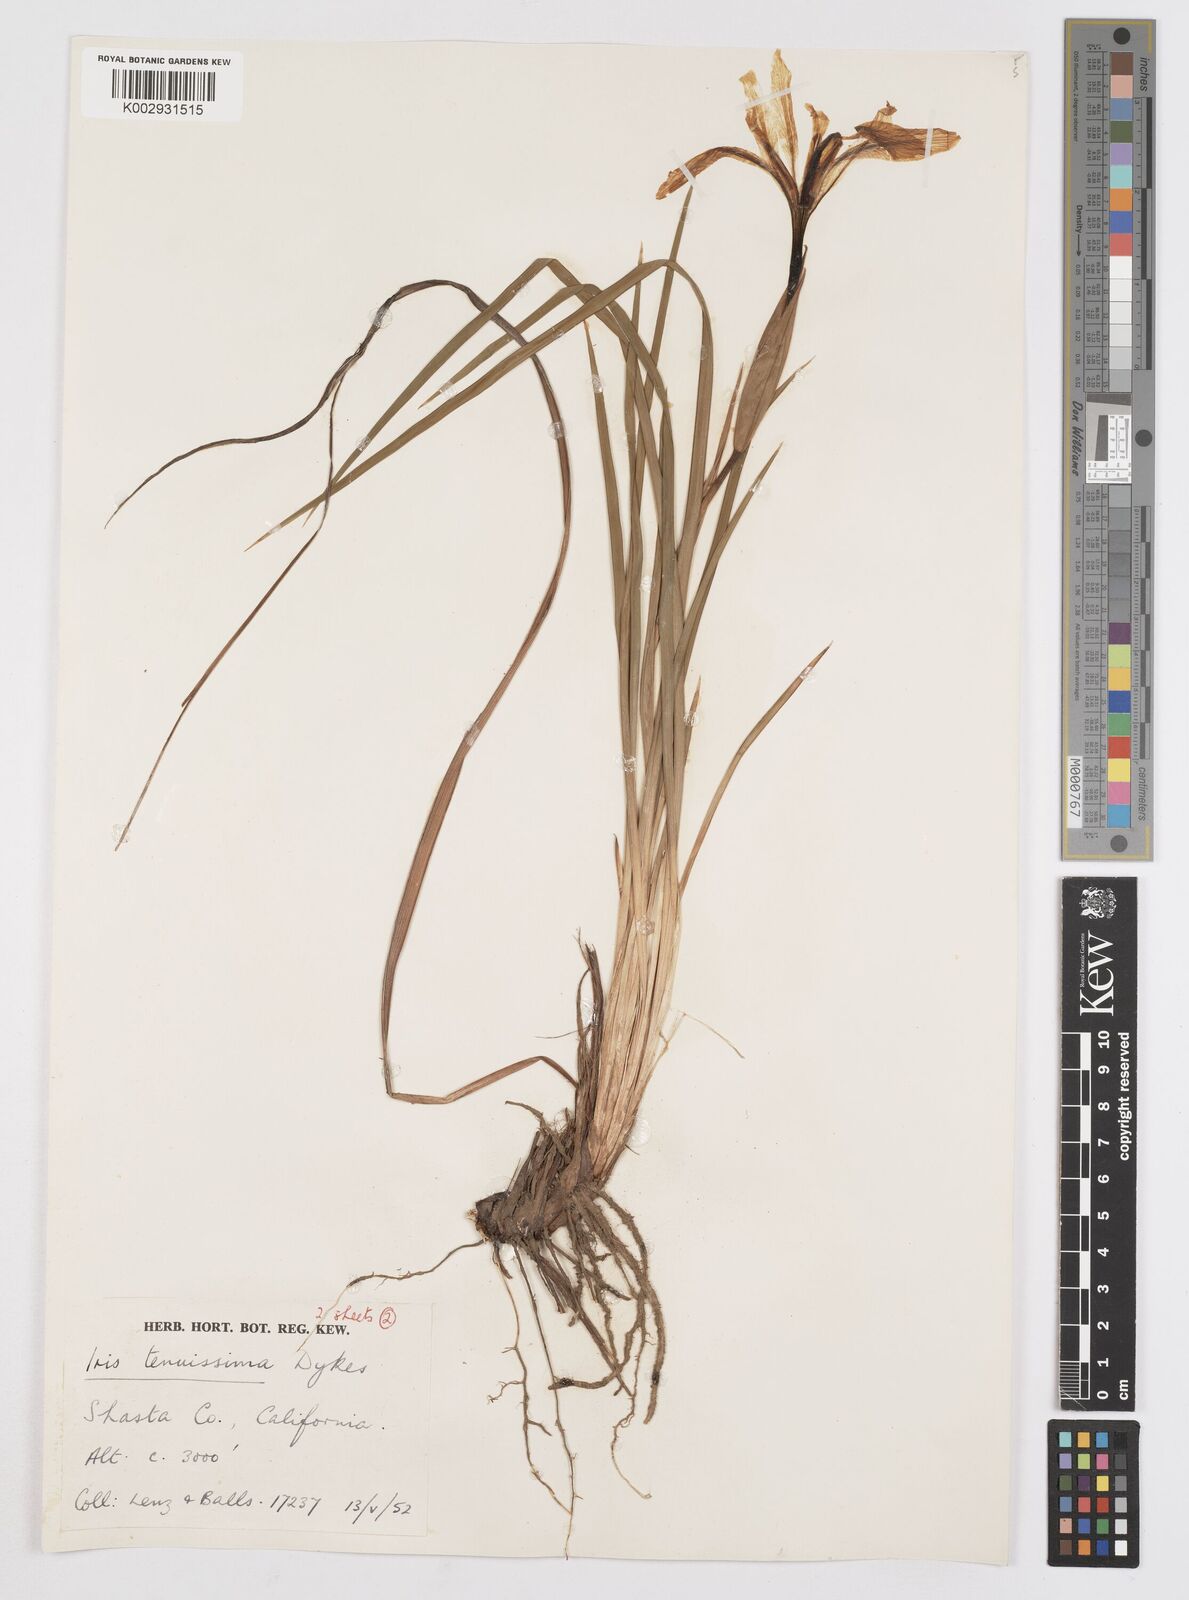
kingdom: Plantae
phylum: Tracheophyta
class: Liliopsida
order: Asparagales
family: Iridaceae
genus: Iris
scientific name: Iris tenuissima
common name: Long-tube iris
